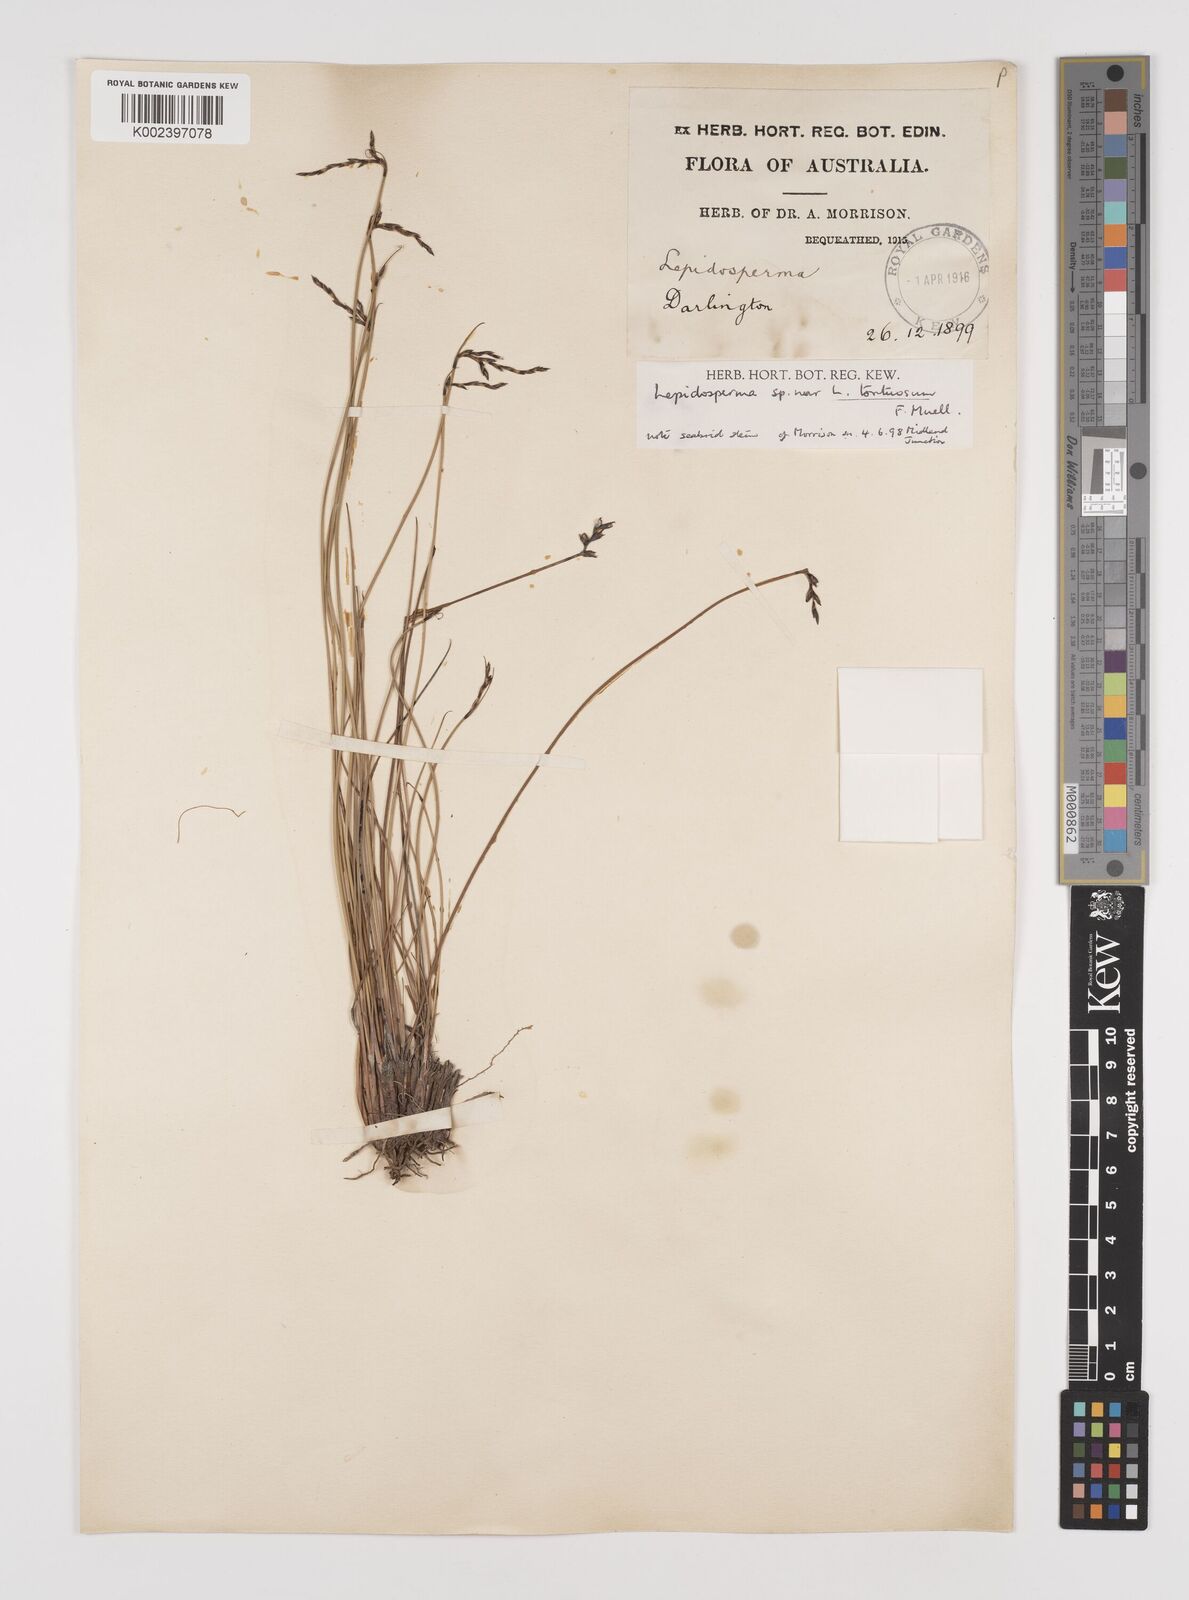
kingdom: Plantae
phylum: Tracheophyta
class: Liliopsida
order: Poales
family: Cyperaceae
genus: Lepidosperma
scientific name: Lepidosperma tortuosum
